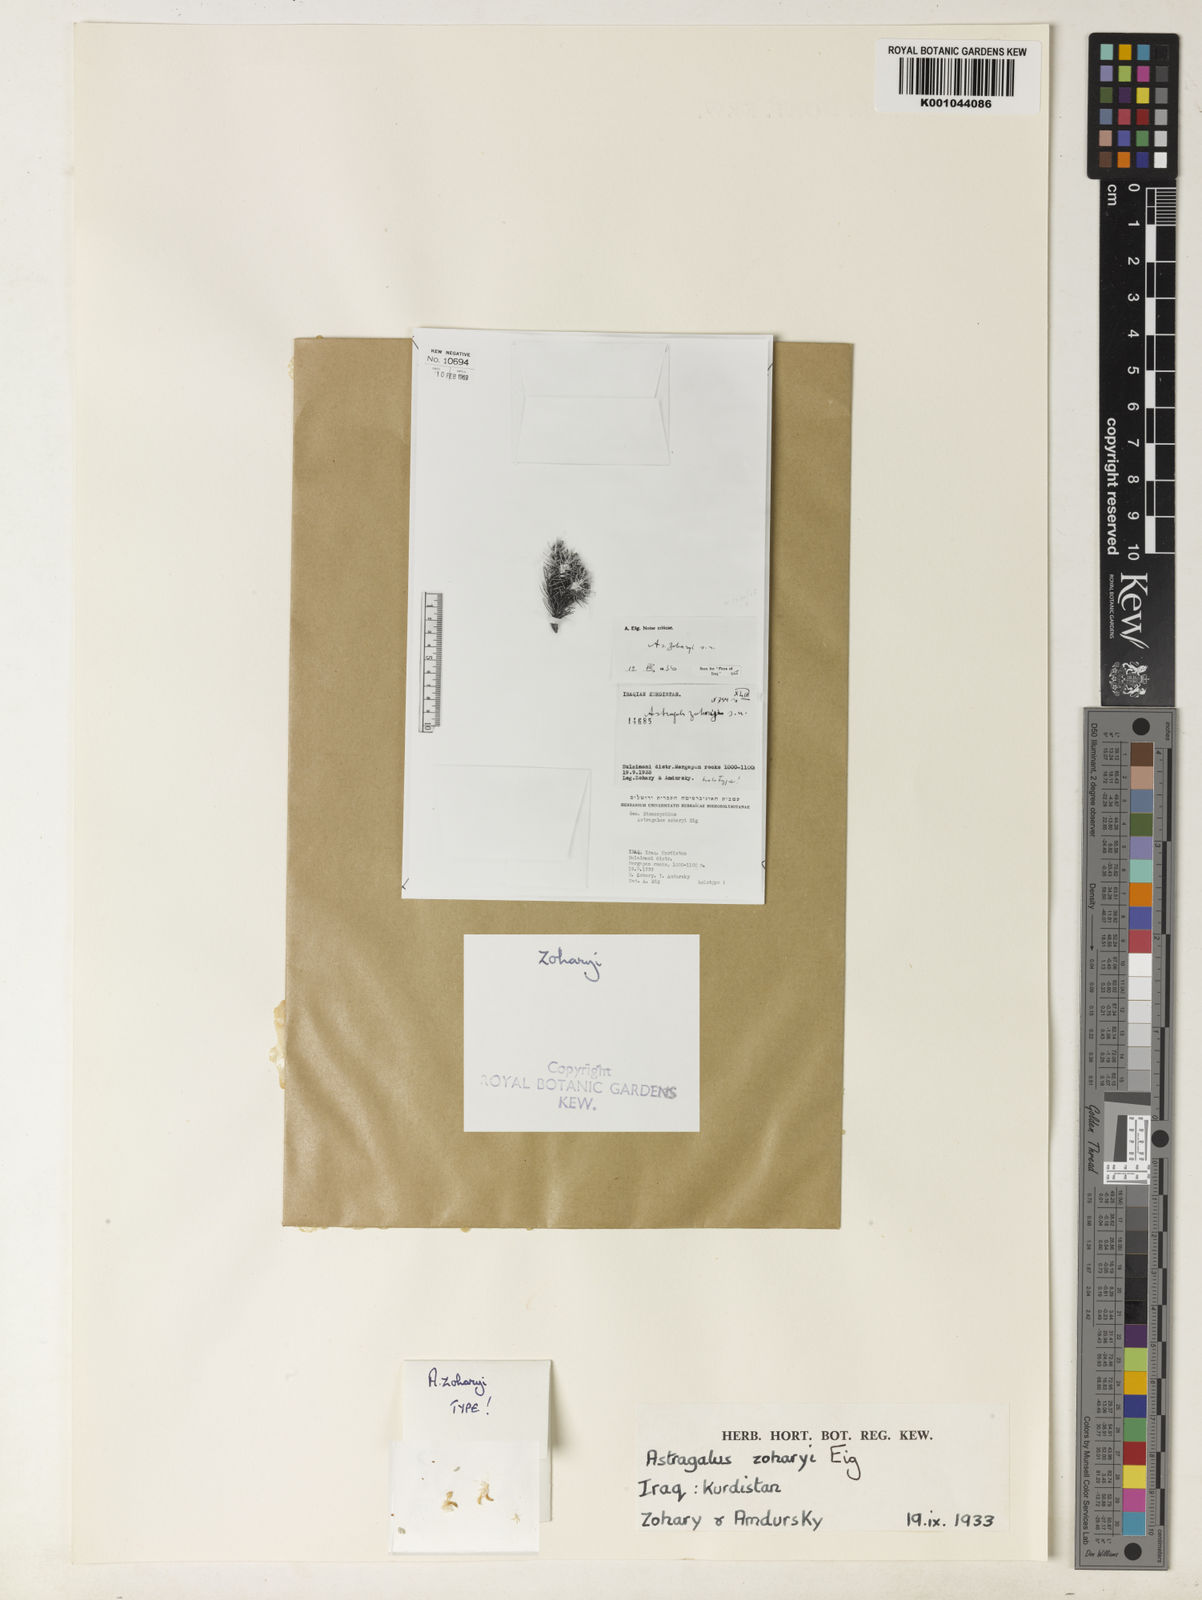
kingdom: Plantae
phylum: Tracheophyta
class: Magnoliopsida
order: Fabales
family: Fabaceae
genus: Astragalus
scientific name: Astragalus zoharyi
